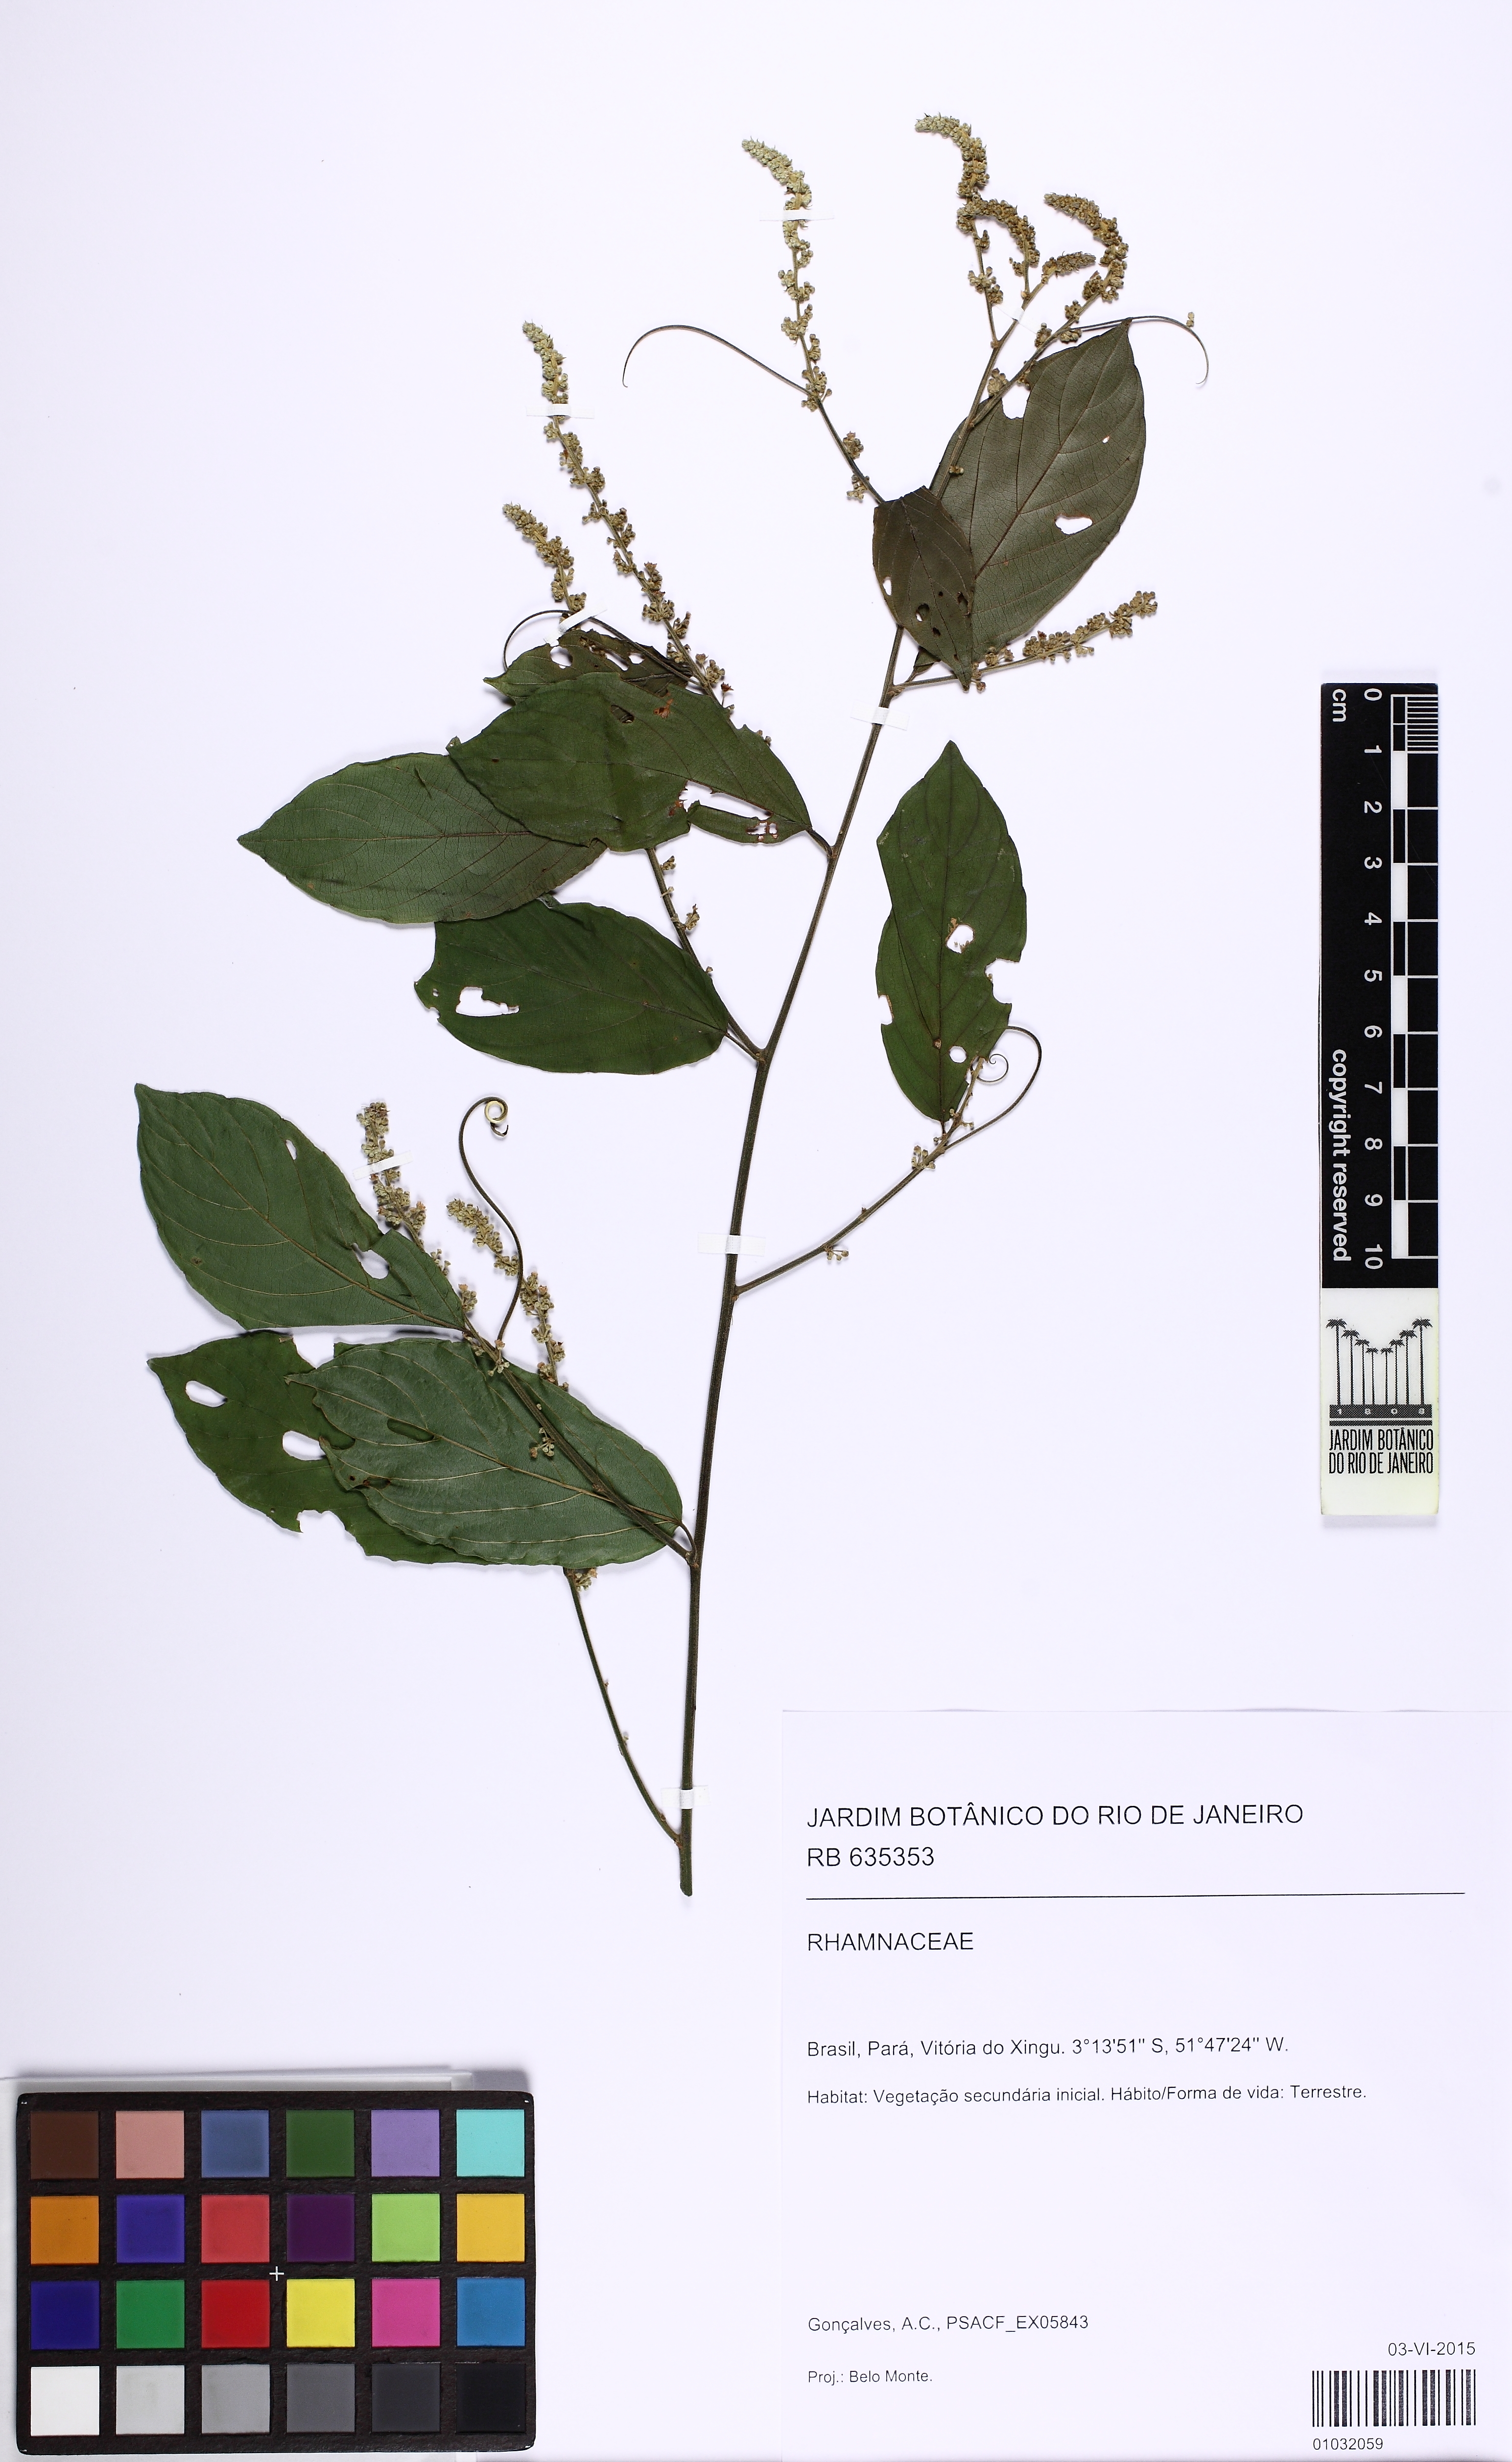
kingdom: Plantae
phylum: Tracheophyta
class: Magnoliopsida
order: Rosales
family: Rhamnaceae
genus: Gouania
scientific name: Gouania
